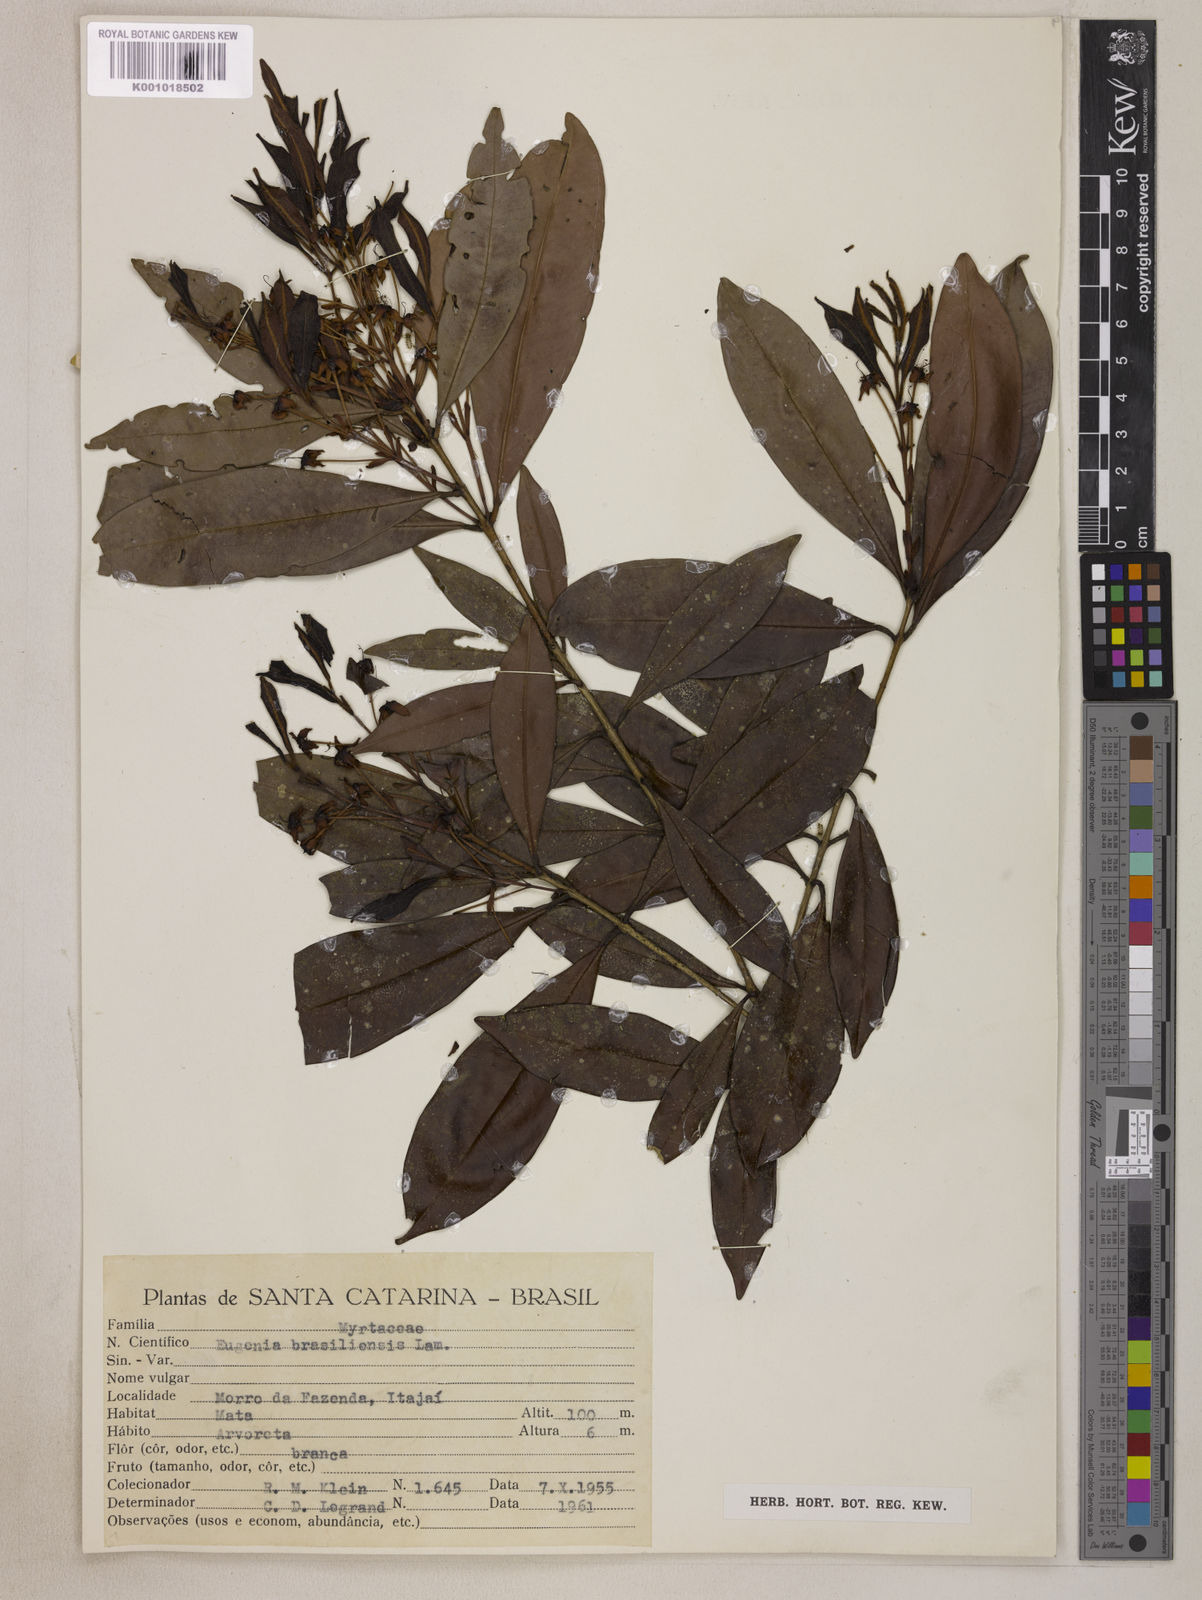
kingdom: Plantae
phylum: Tracheophyta
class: Magnoliopsida
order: Myrtales
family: Myrtaceae
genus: Eugenia
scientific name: Eugenia brasiliensis
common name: Grumichama
